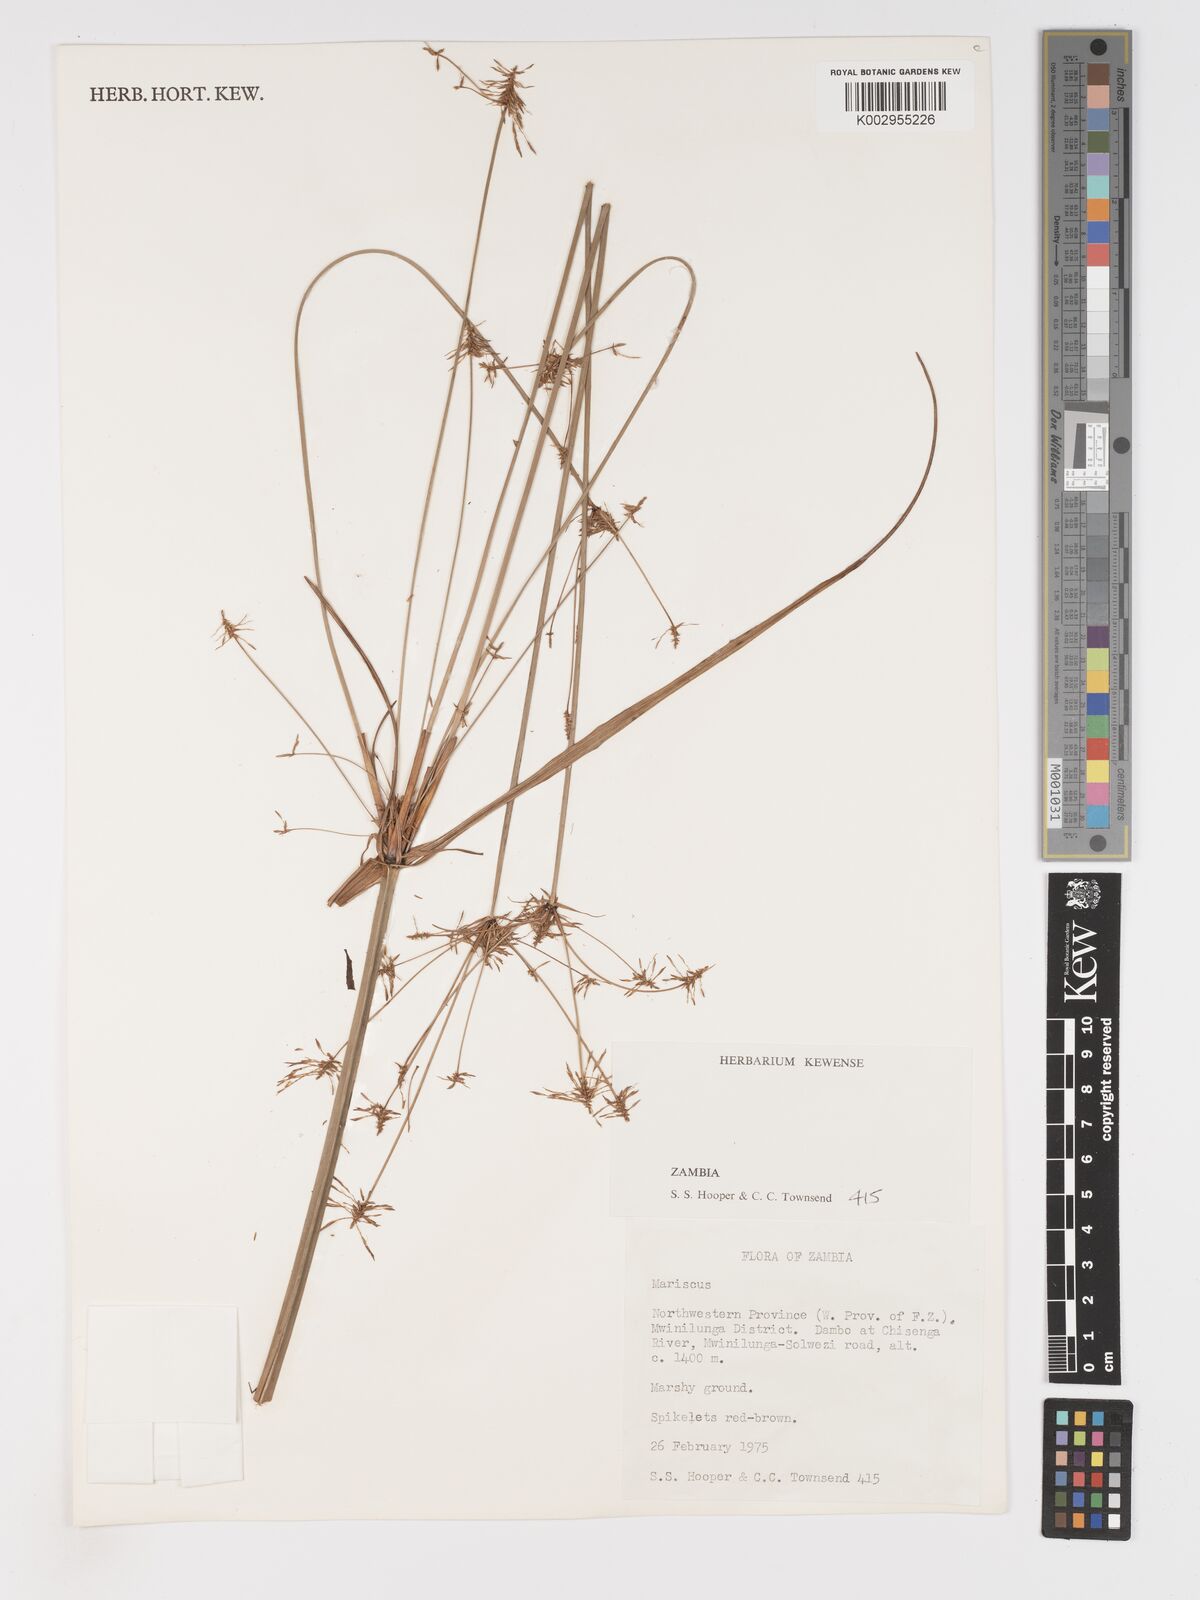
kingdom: Plantae
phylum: Tracheophyta
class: Liliopsida
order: Poales
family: Cyperaceae
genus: Cyperus
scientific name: Cyperus
